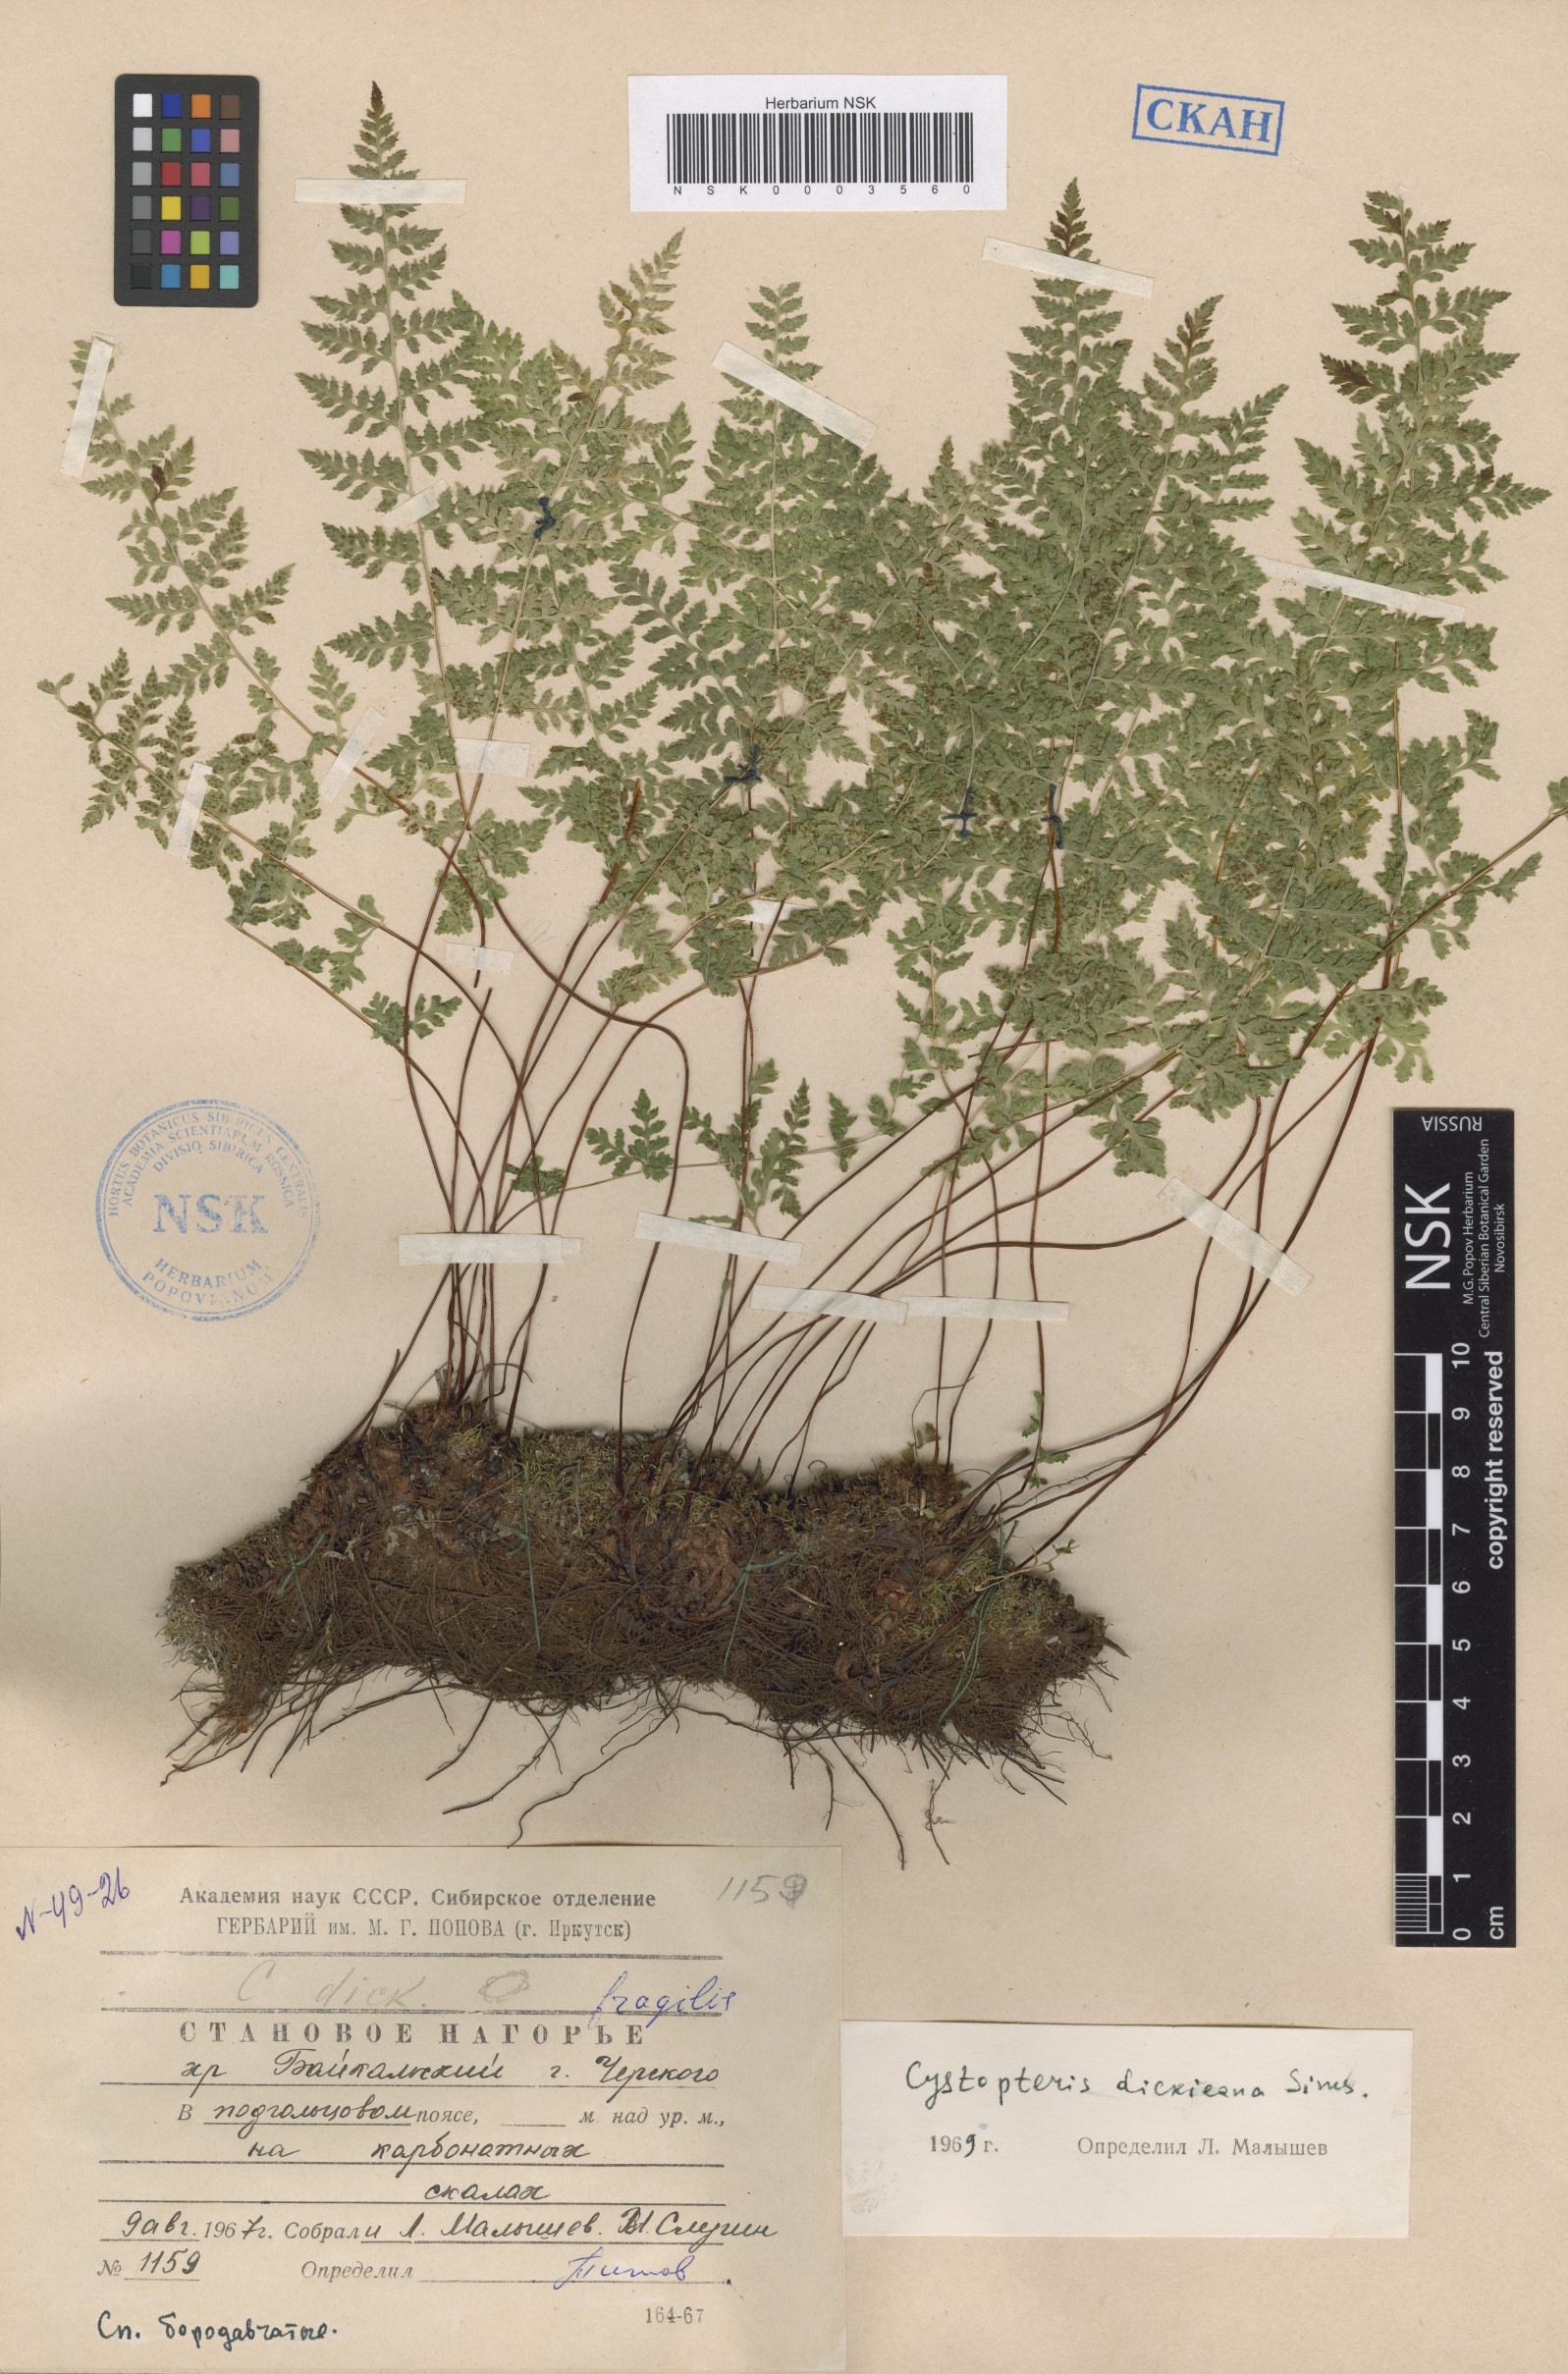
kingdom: Plantae
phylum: Tracheophyta
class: Polypodiopsida
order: Polypodiales
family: Cystopteridaceae
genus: Cystopteris
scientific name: Cystopteris dickieana
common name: Dickie's bladder-fern
